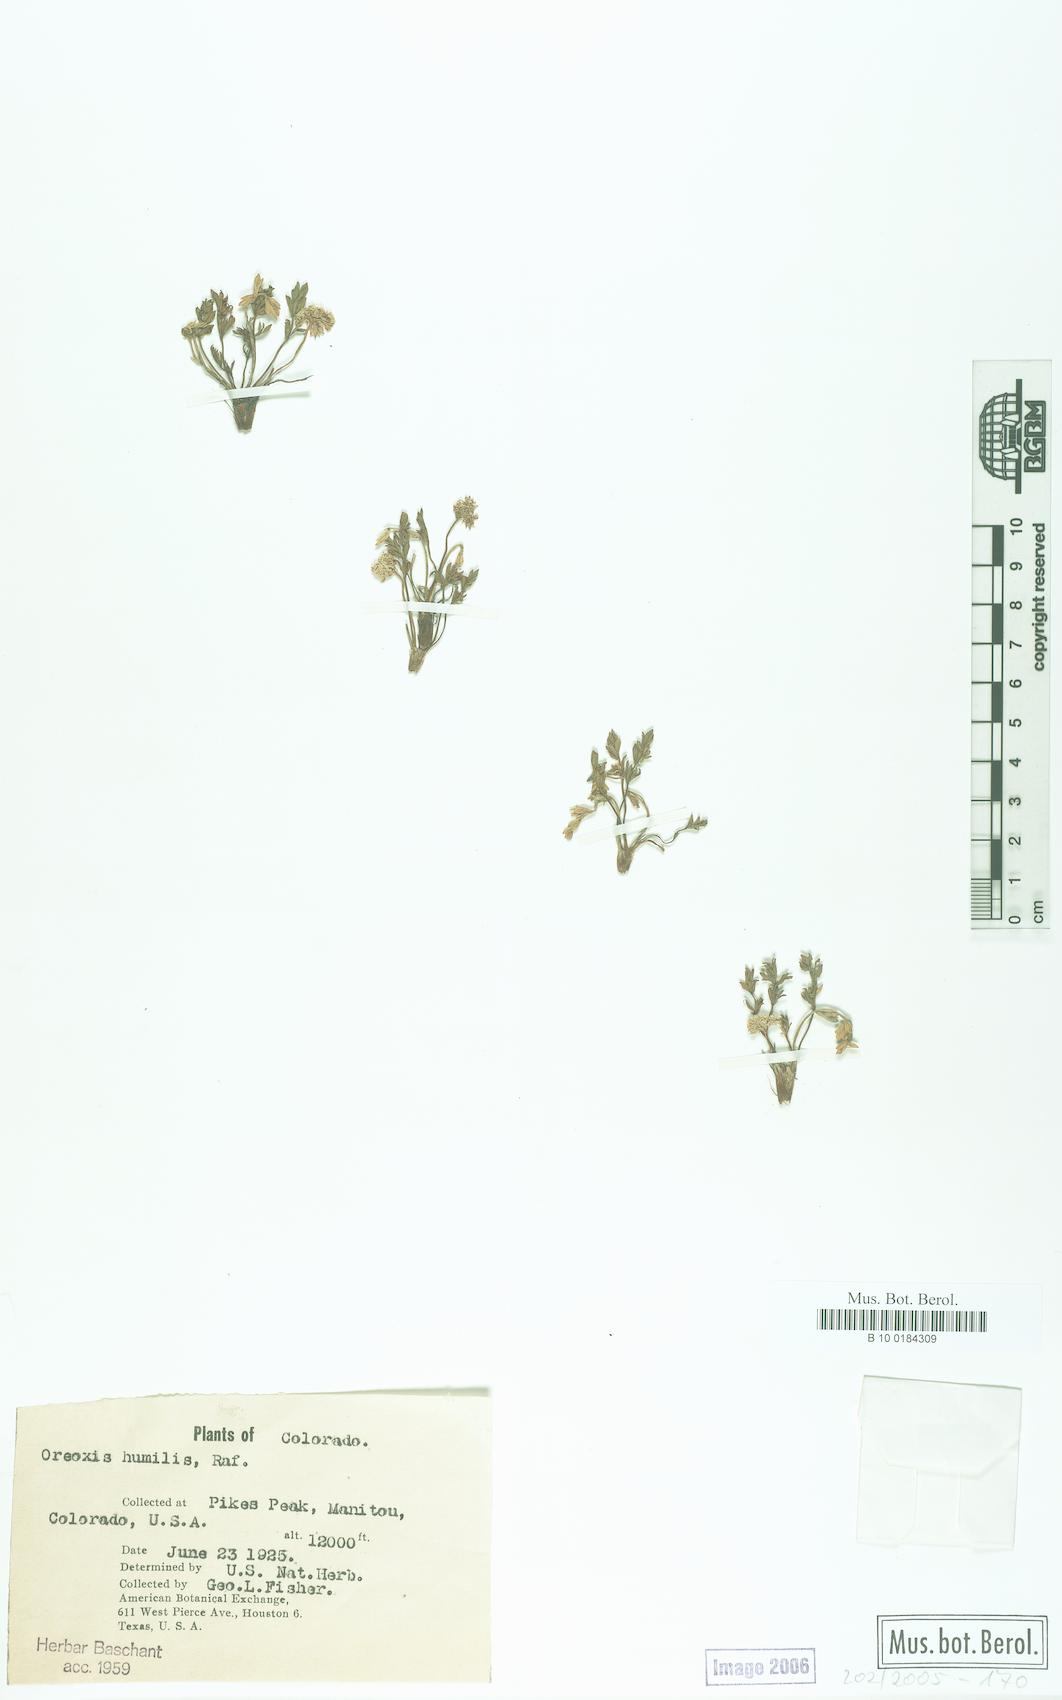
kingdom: Plantae
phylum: Tracheophyta
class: Magnoliopsida
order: Apiales
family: Apiaceae
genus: Oreoxis
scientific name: Oreoxis humilis
